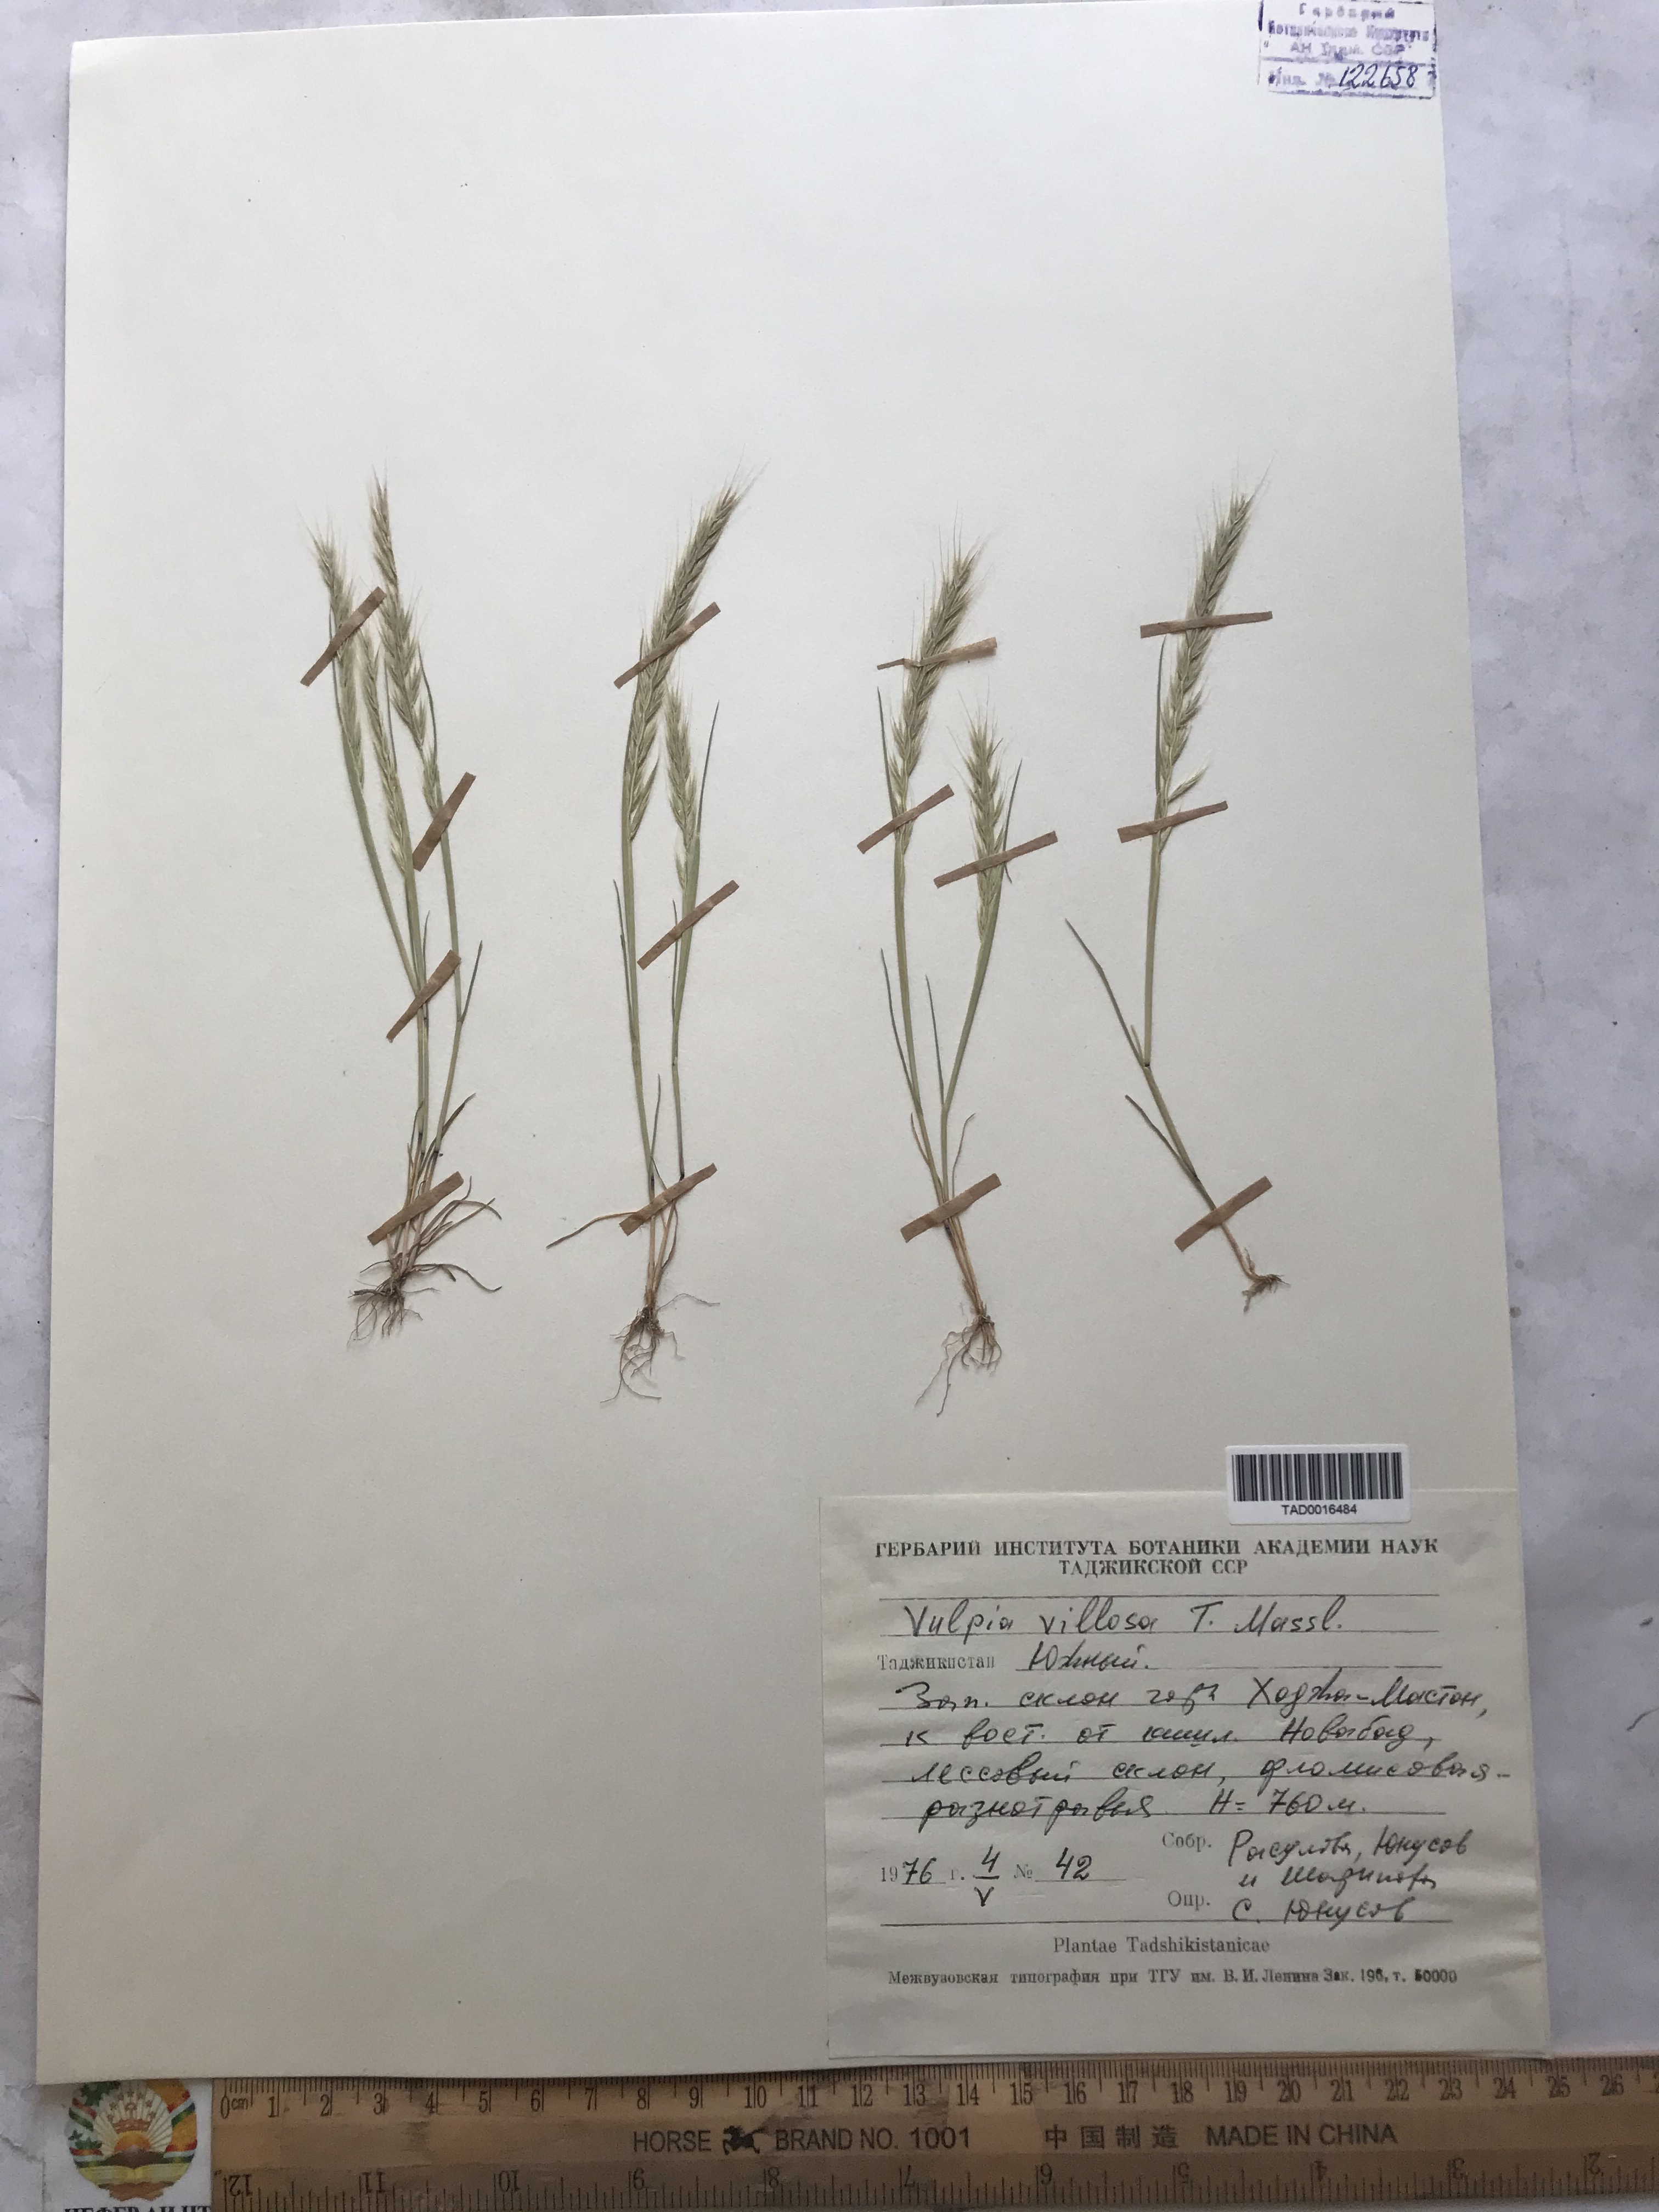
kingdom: Plantae
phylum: Tracheophyta
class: Liliopsida
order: Poales
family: Poaceae
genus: Festuca
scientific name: Festuca Vulpia persica
